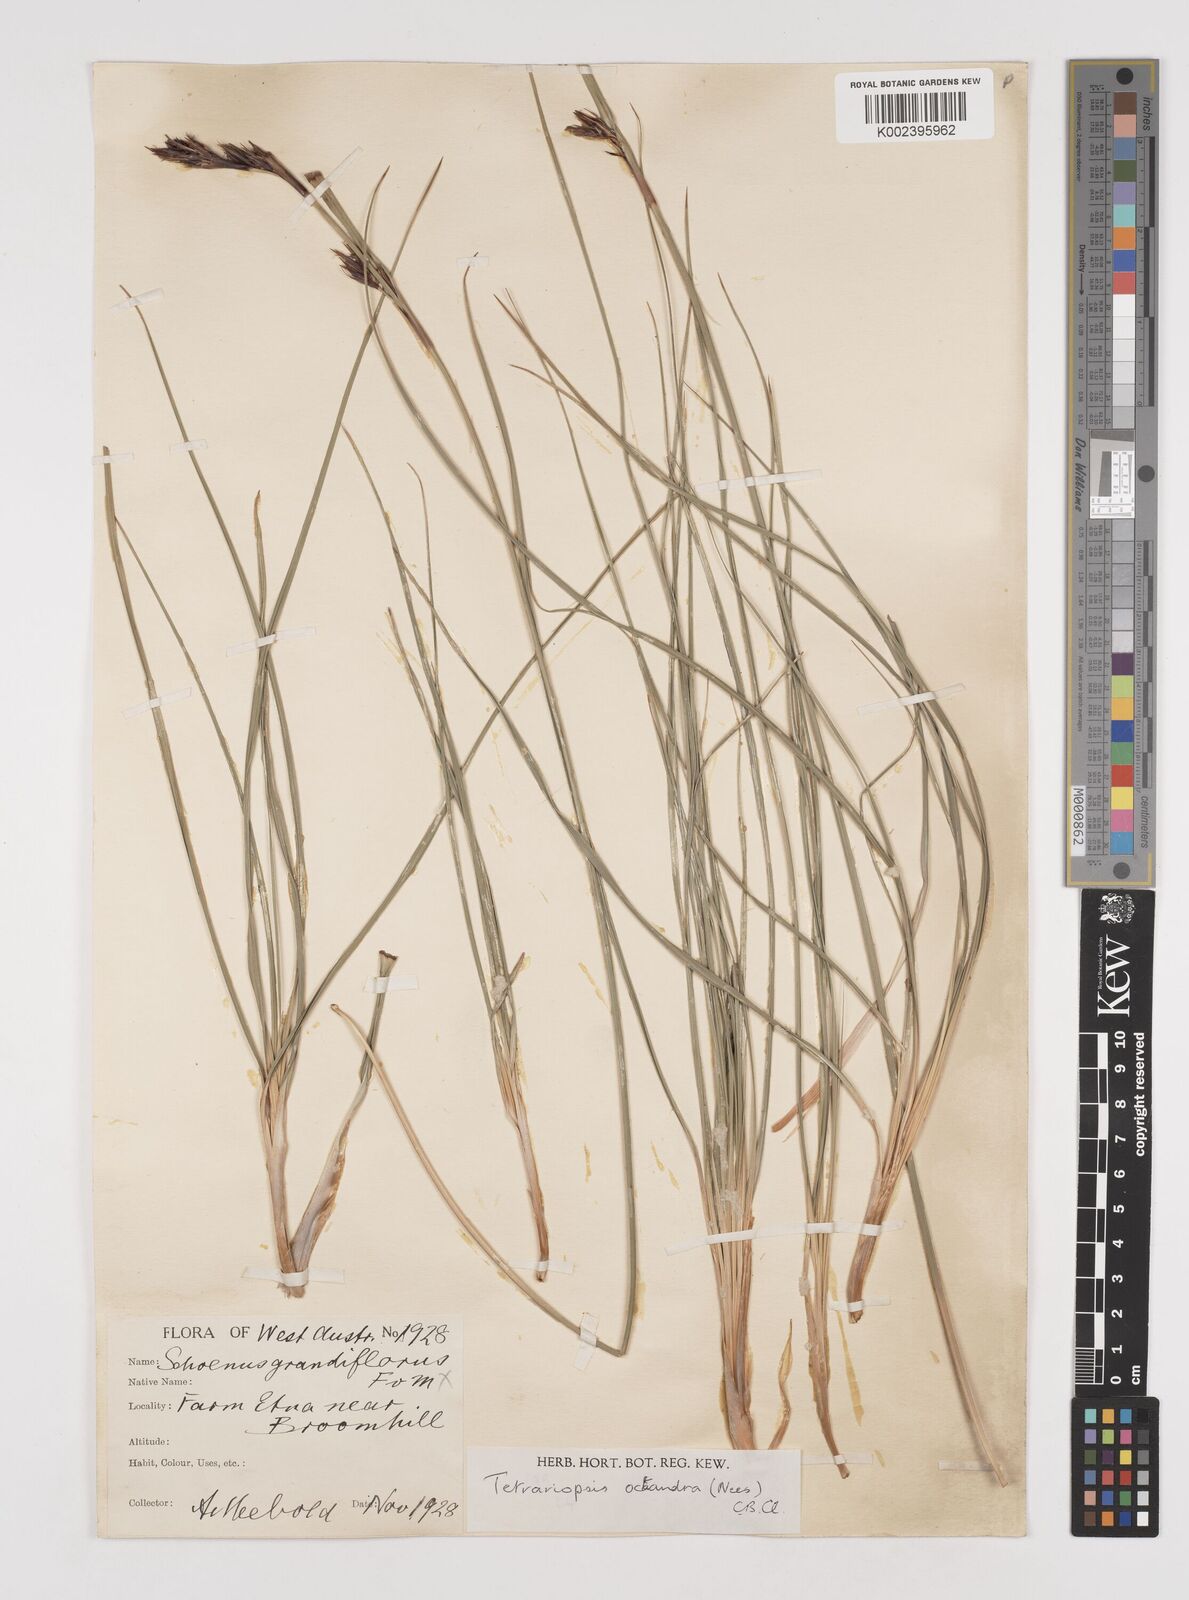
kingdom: Plantae
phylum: Tracheophyta
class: Liliopsida
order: Poales
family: Cyperaceae
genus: Tetraria
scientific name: Tetraria octandra
